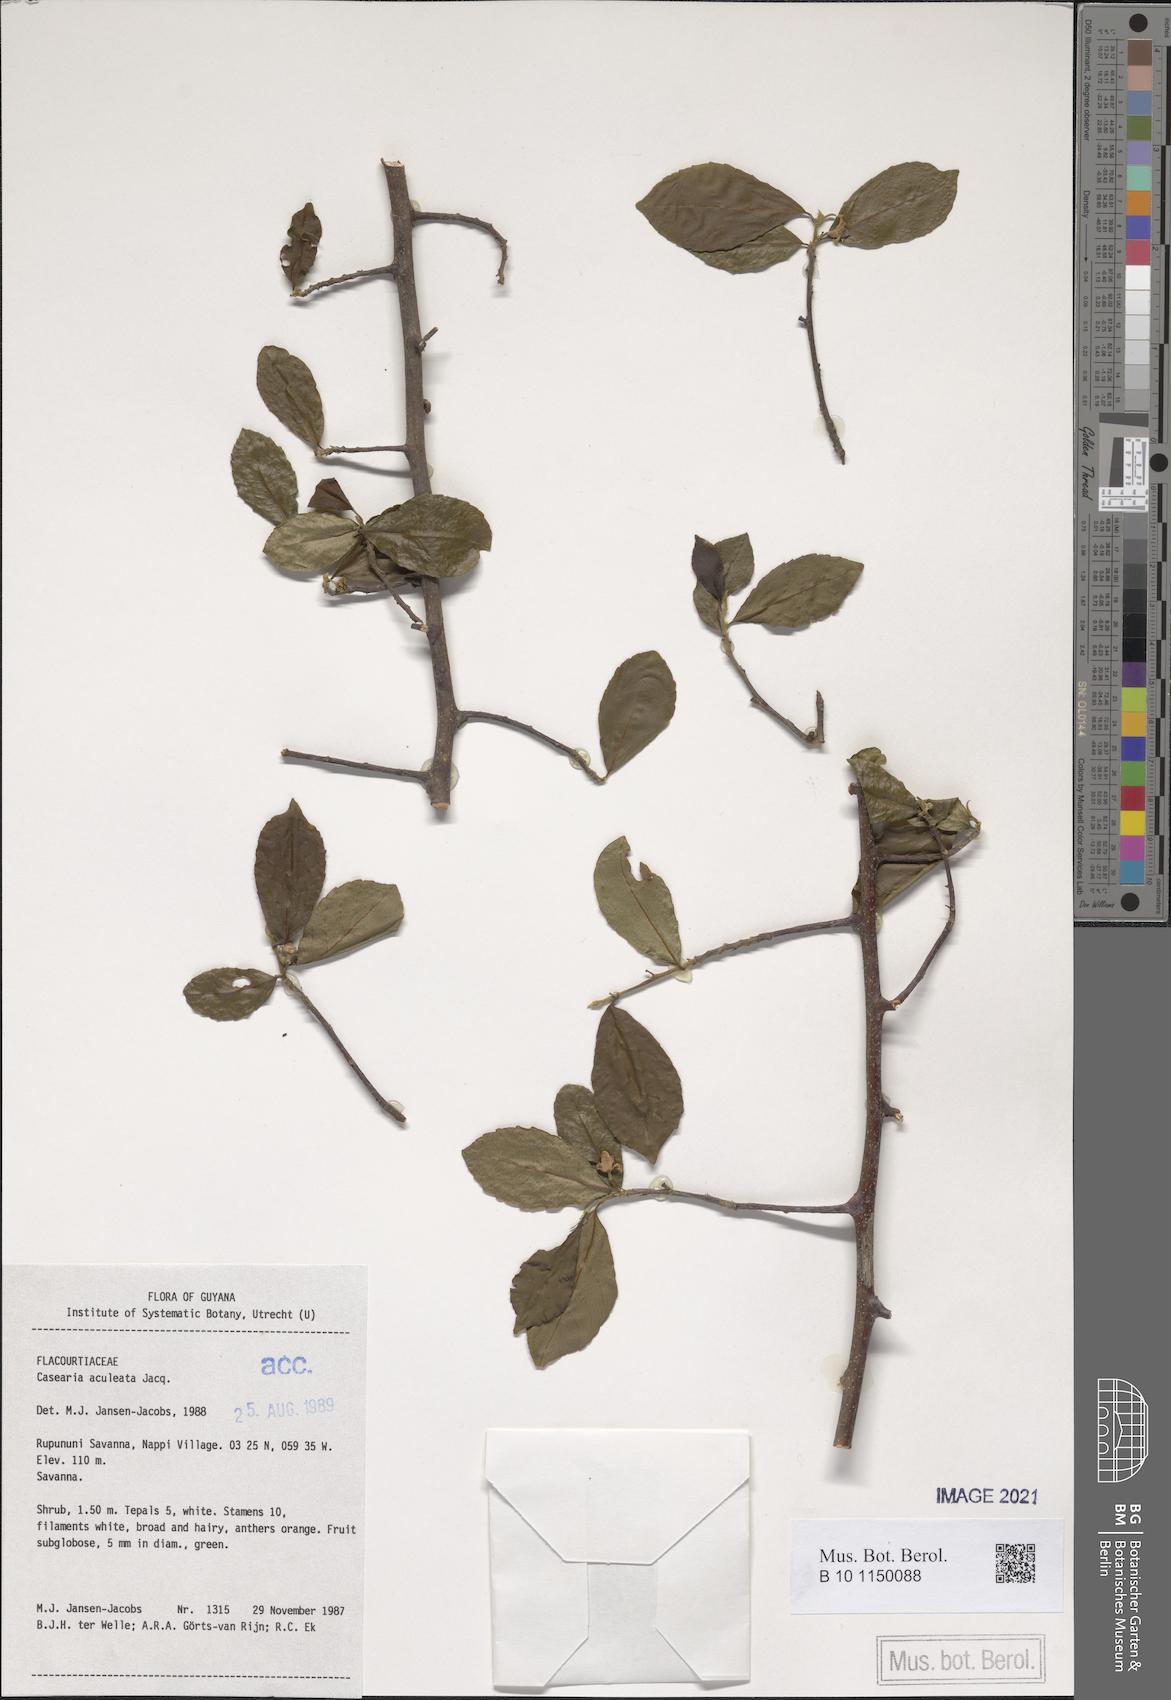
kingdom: Plantae
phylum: Tracheophyta
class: Magnoliopsida
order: Malpighiales
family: Salicaceae
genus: Casearia
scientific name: Casearia aculeata
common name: Cockspur
